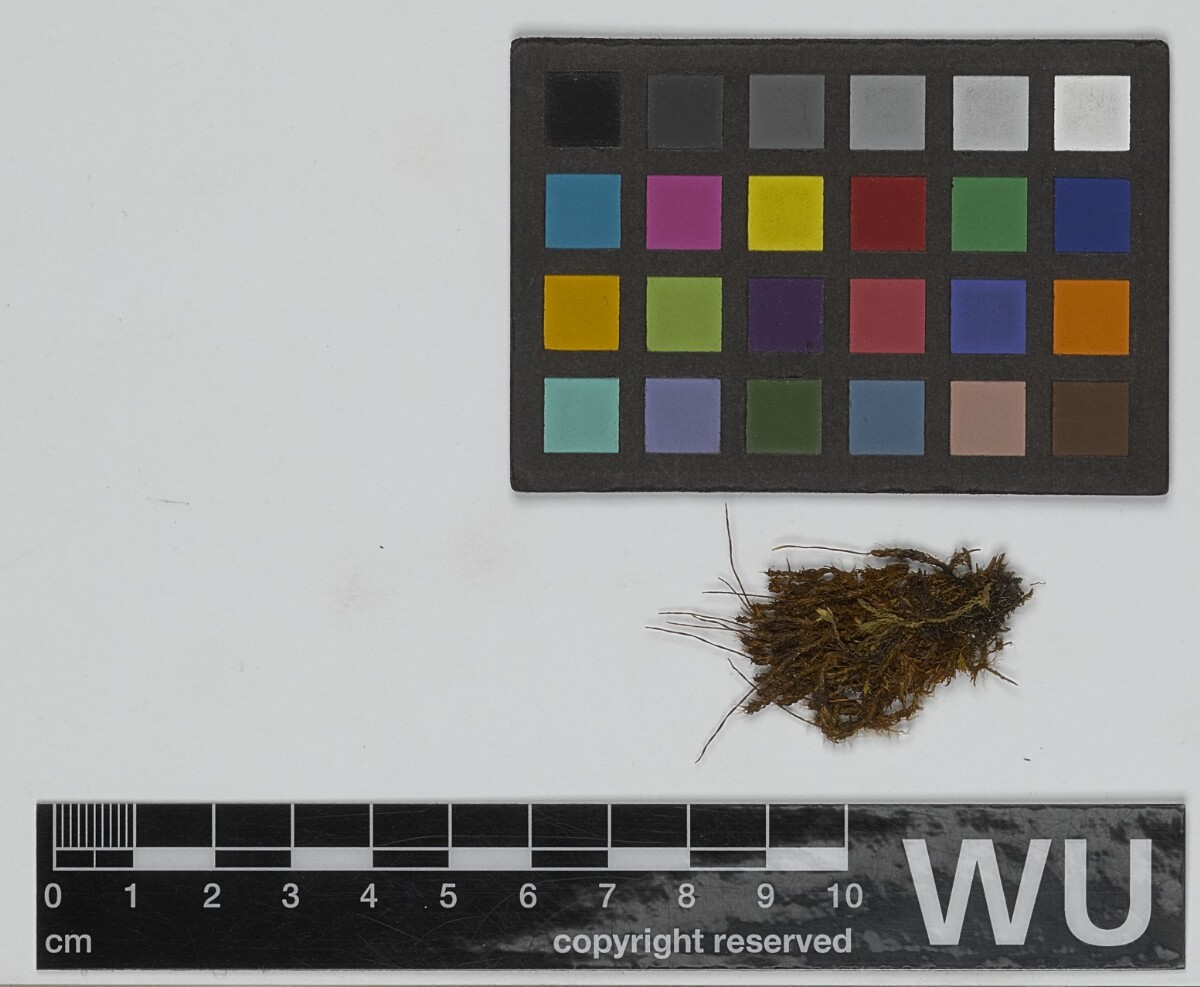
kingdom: Plantae
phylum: Bryophyta
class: Bryopsida
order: Pottiales
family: Pottiaceae
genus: Syntrichia
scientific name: Syntrichia ruralis
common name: Sidewalk screw moss
